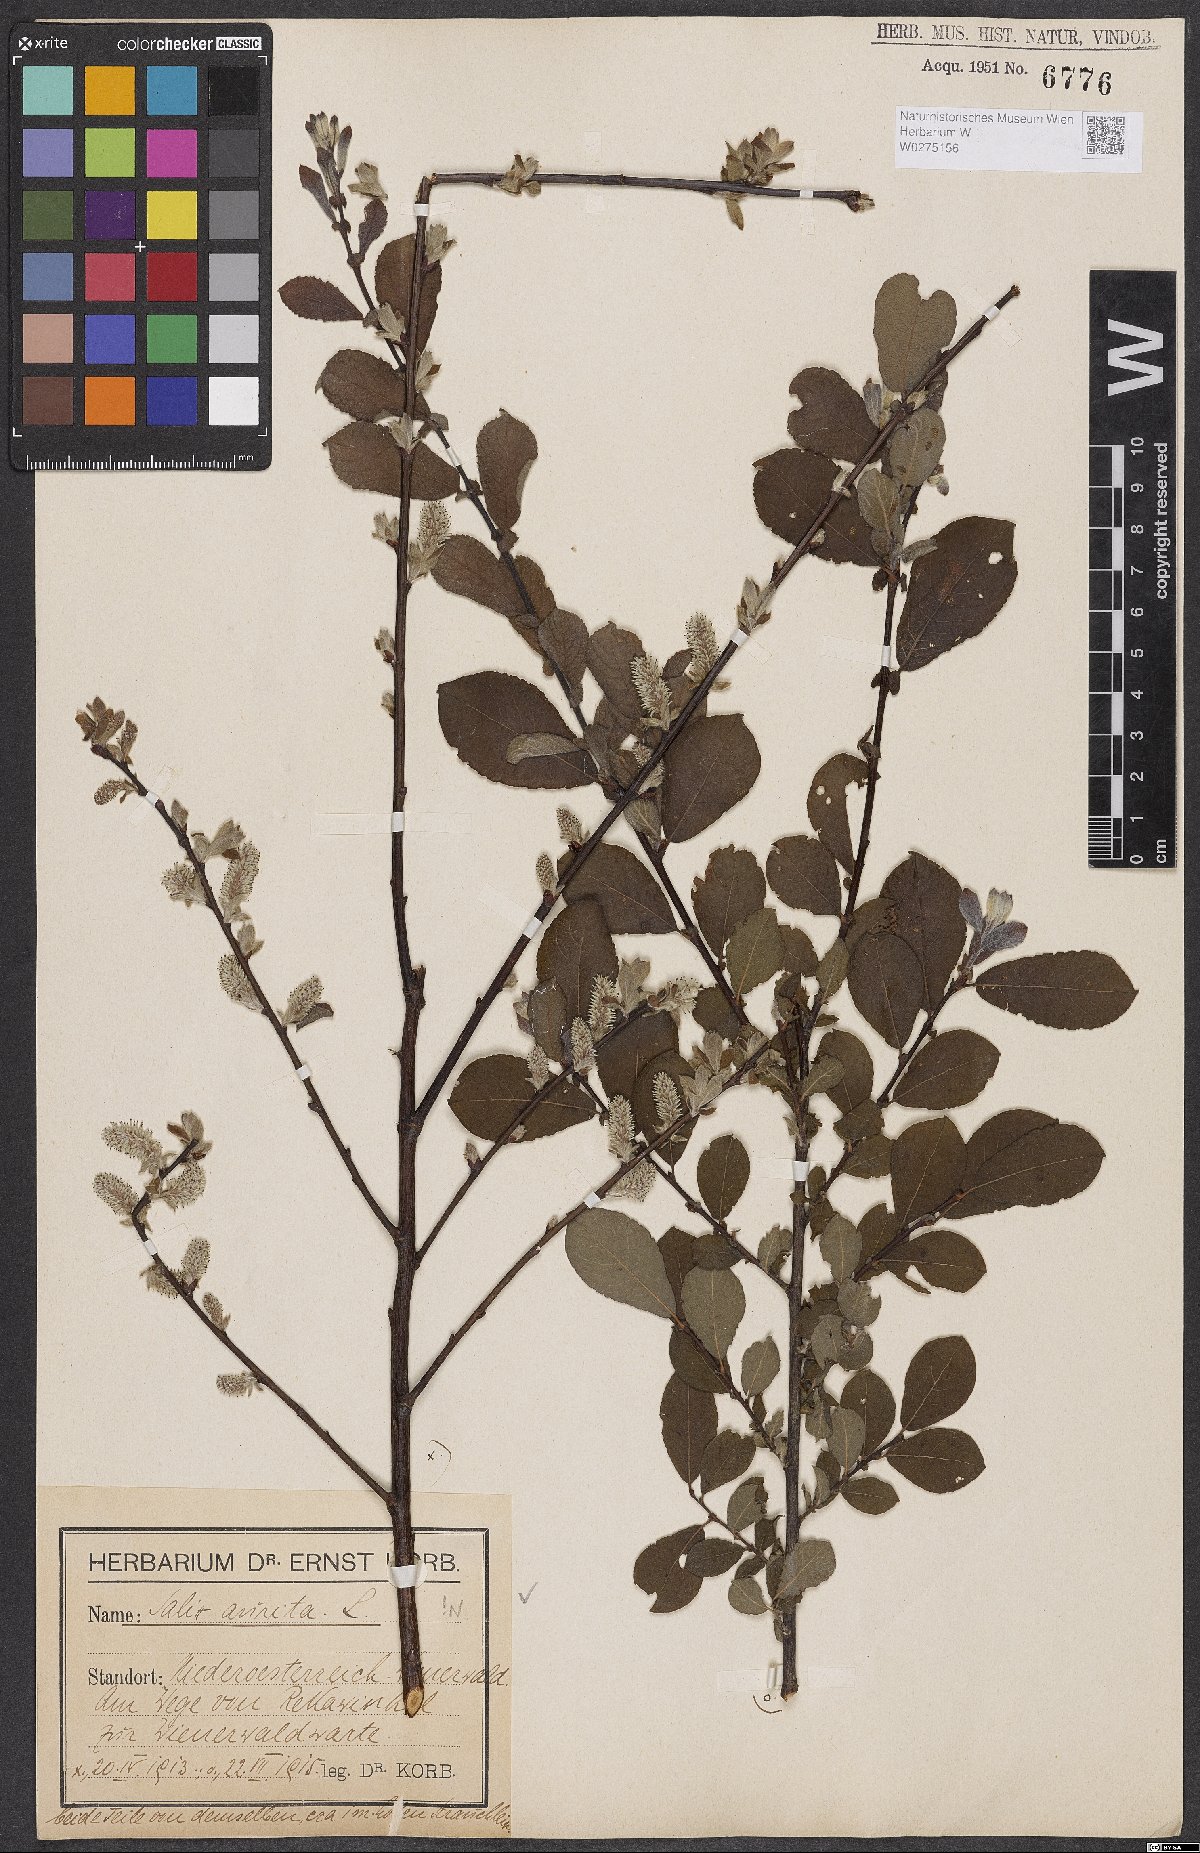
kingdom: Plantae
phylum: Tracheophyta
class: Magnoliopsida
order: Malpighiales
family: Salicaceae
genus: Salix
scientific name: Salix aurita
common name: Eared willow
